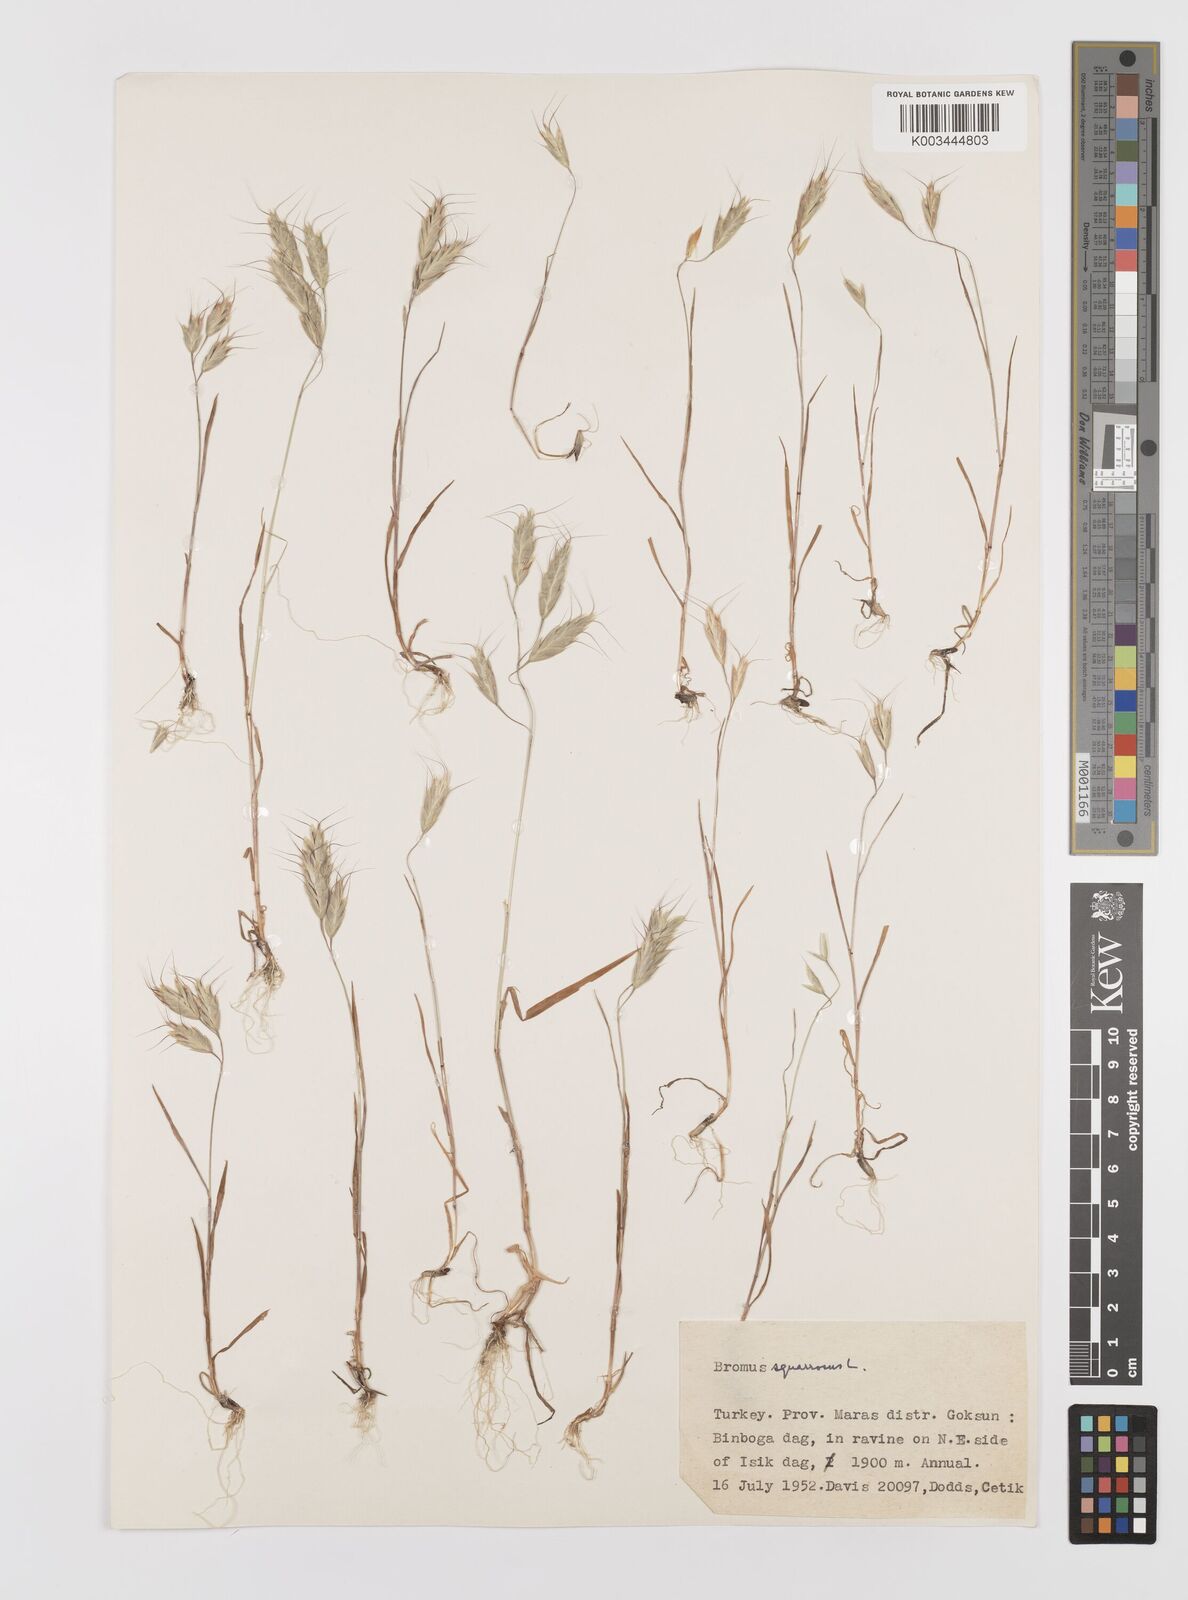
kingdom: Plantae
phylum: Tracheophyta
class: Liliopsida
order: Poales
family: Poaceae
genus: Bromus
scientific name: Bromus squarrosus
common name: Corn brome
